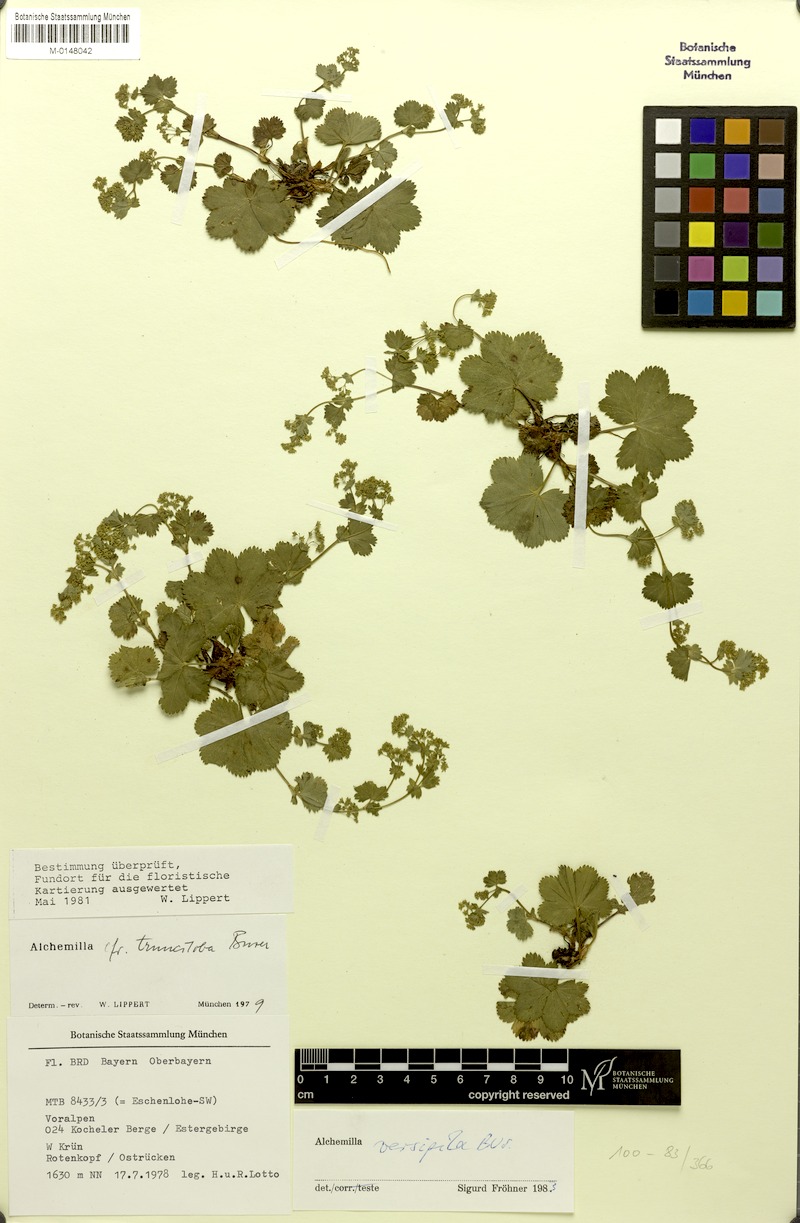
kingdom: Plantae
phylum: Tracheophyta
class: Magnoliopsida
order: Rosales
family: Rosaceae
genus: Alchemilla
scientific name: Alchemilla versipila
